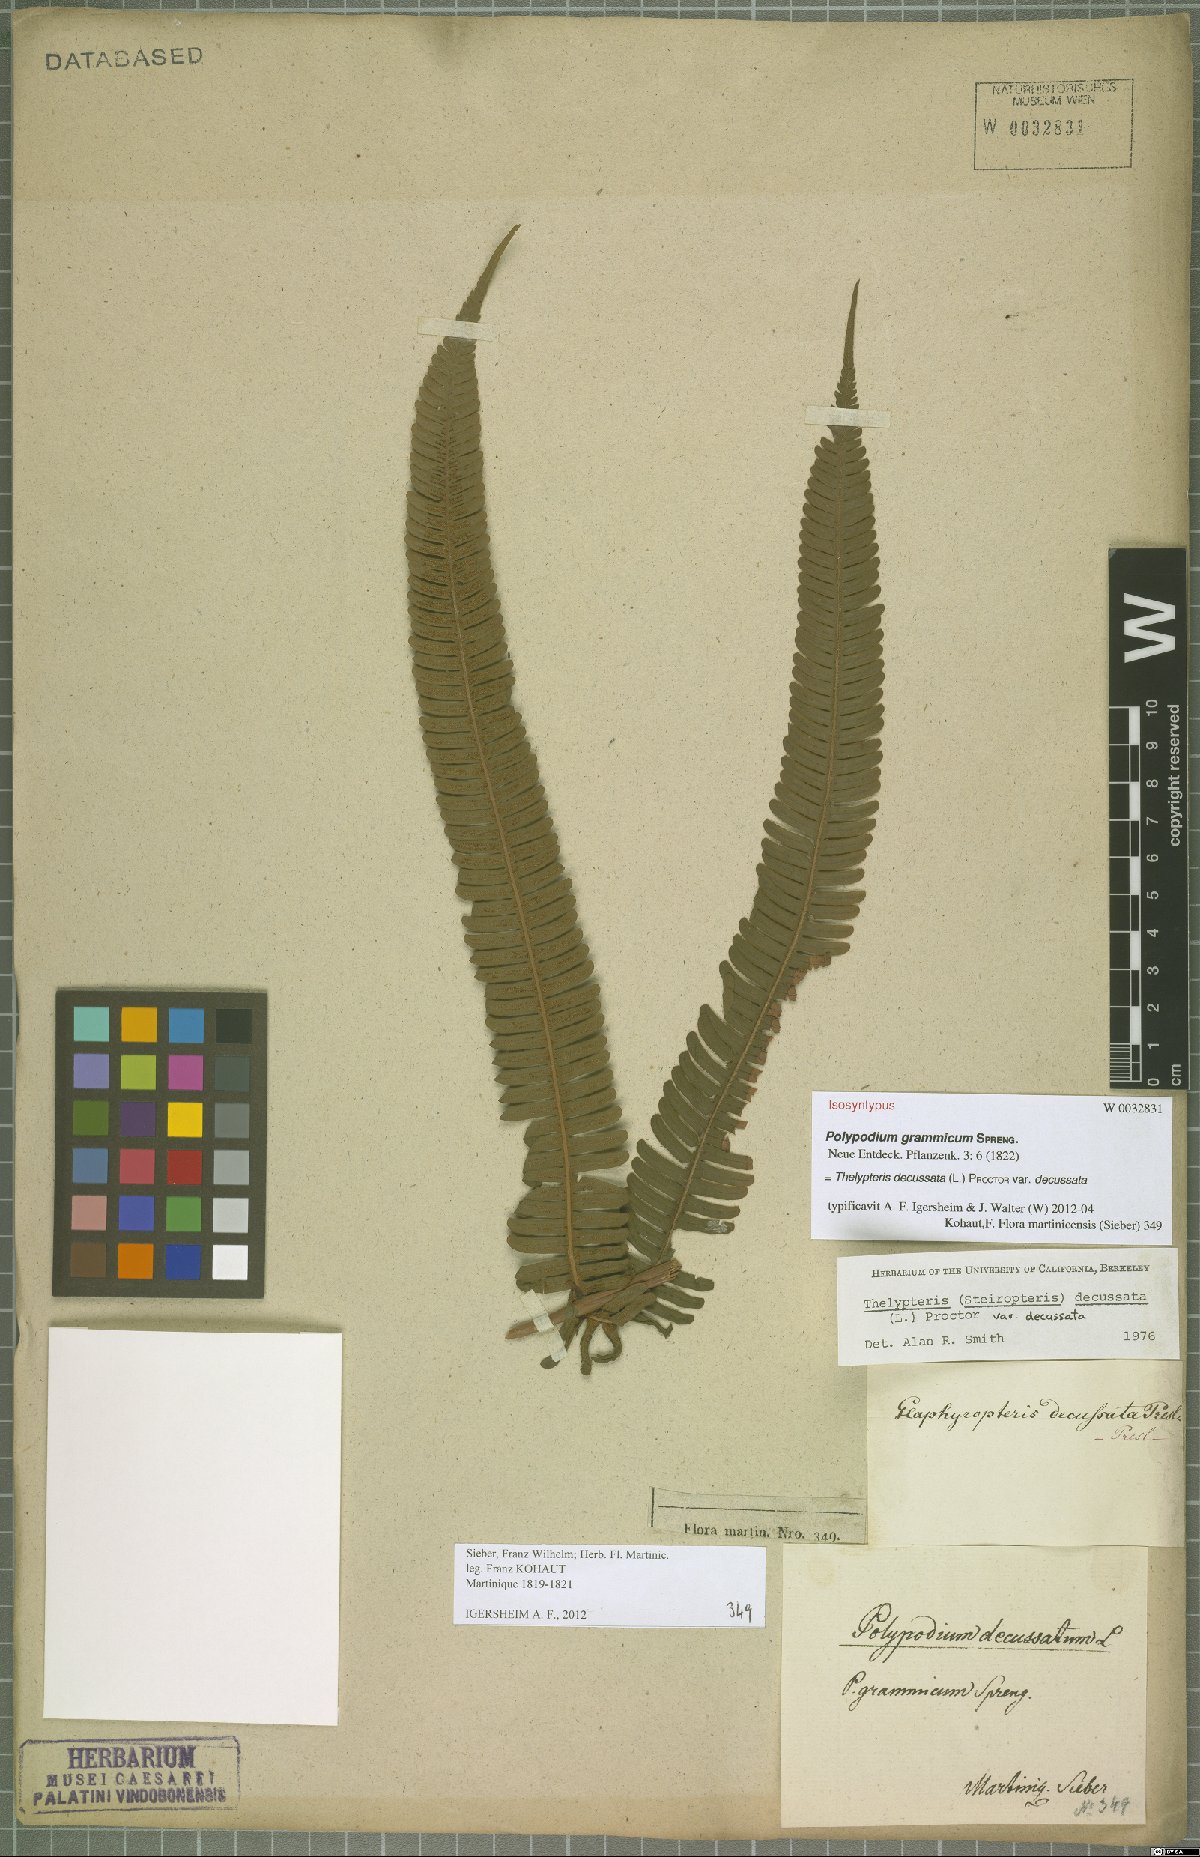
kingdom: Plantae
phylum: Tracheophyta
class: Polypodiopsida
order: Polypodiales
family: Thelypteridaceae
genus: Steiropteris
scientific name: Steiropteris decussata
